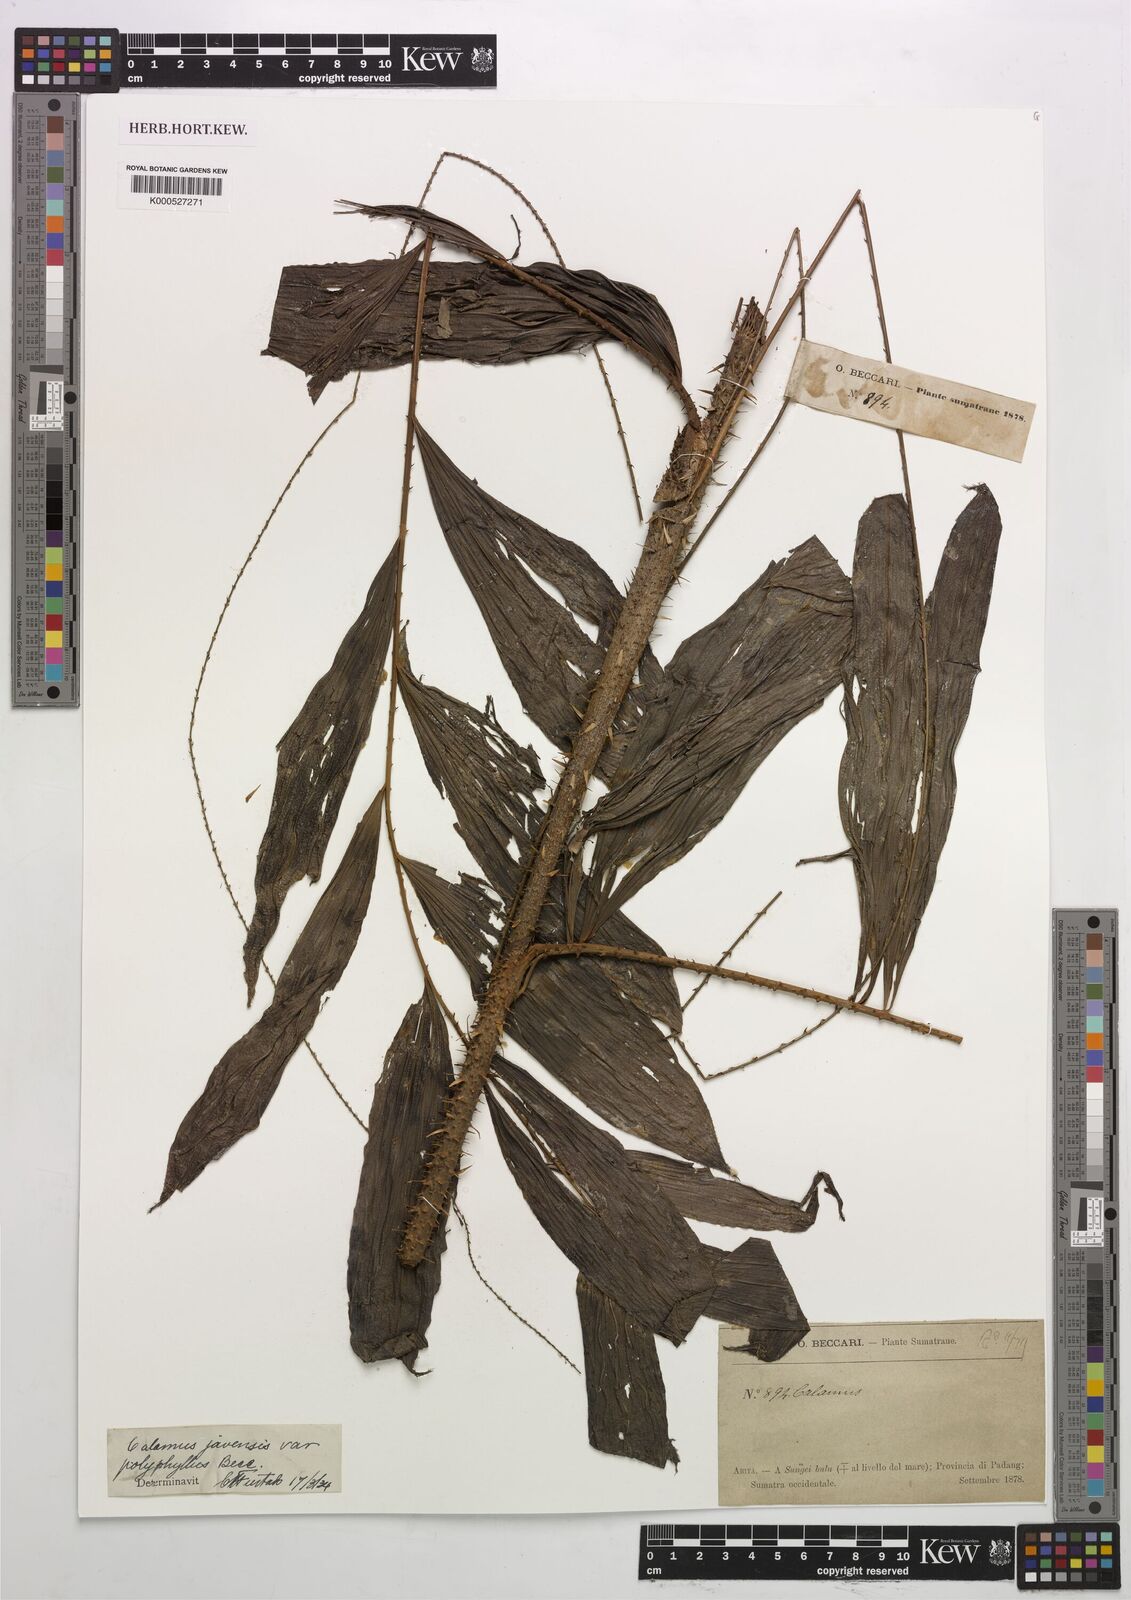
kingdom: Plantae
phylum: Tracheophyta
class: Liliopsida
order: Arecales
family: Arecaceae
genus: Calamus
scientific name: Calamus javensis
